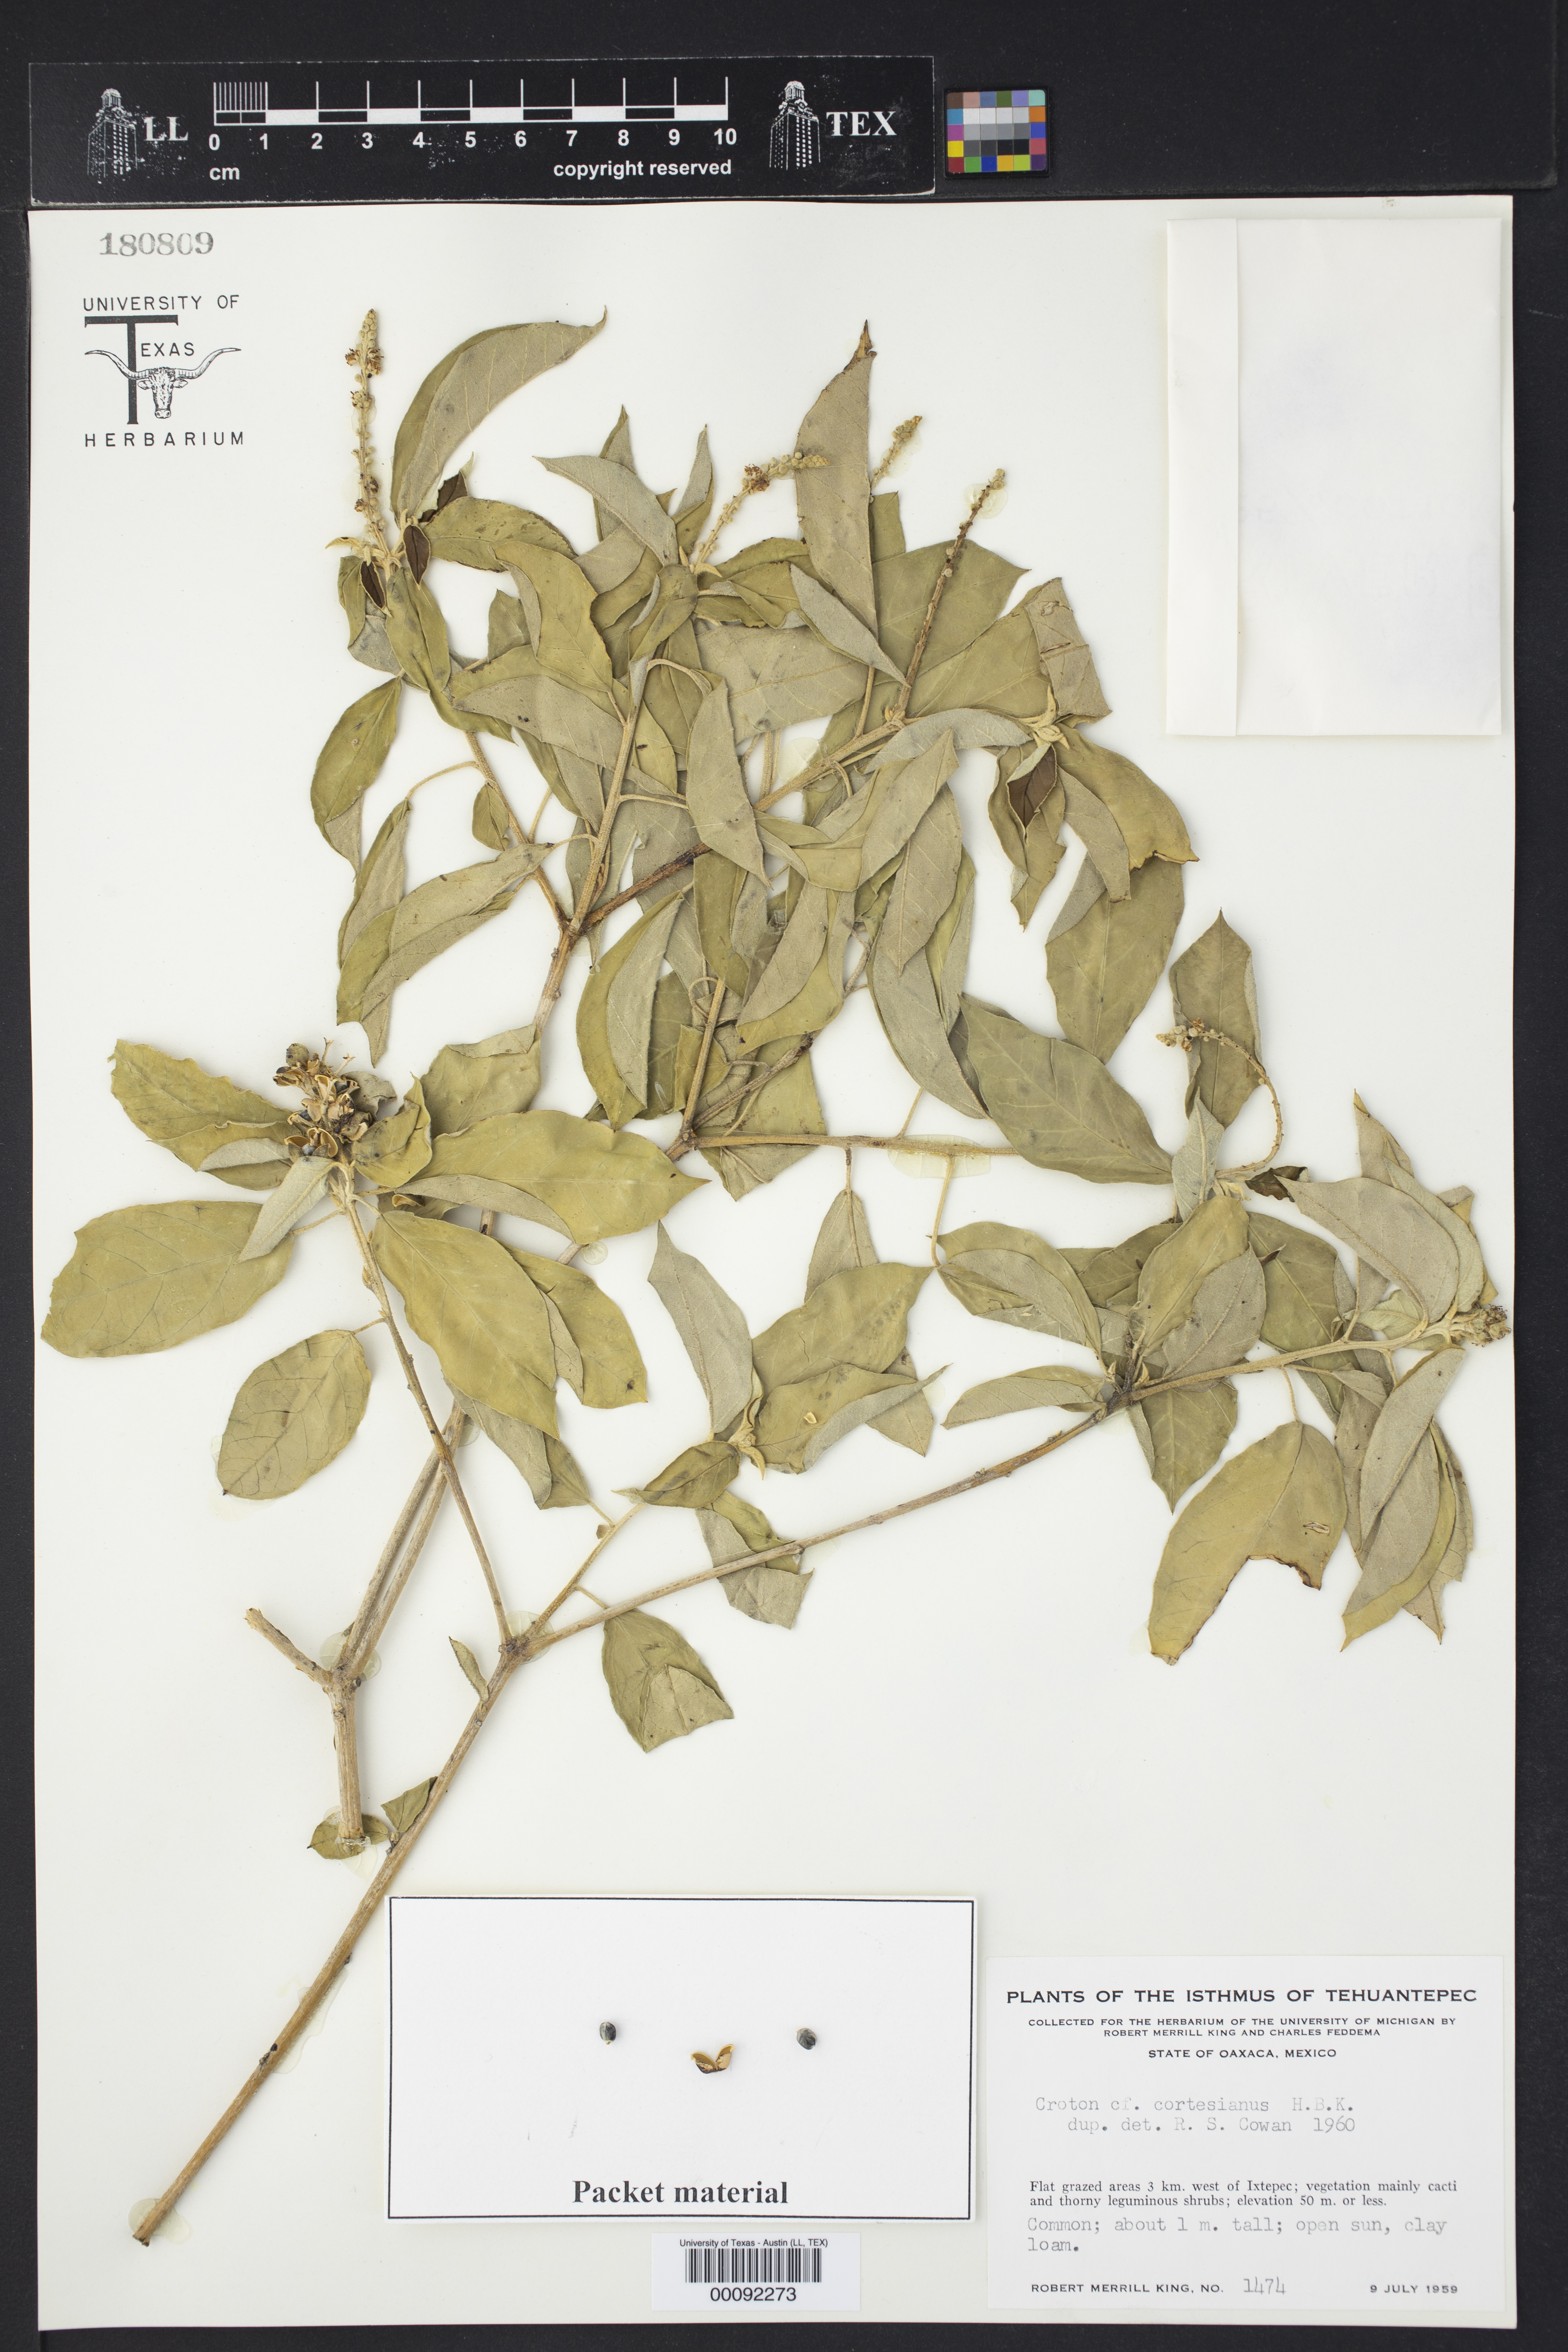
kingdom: Plantae
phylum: Tracheophyta
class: Magnoliopsida
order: Malpighiales
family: Euphorbiaceae
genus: Croton
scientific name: Croton cortesianus
